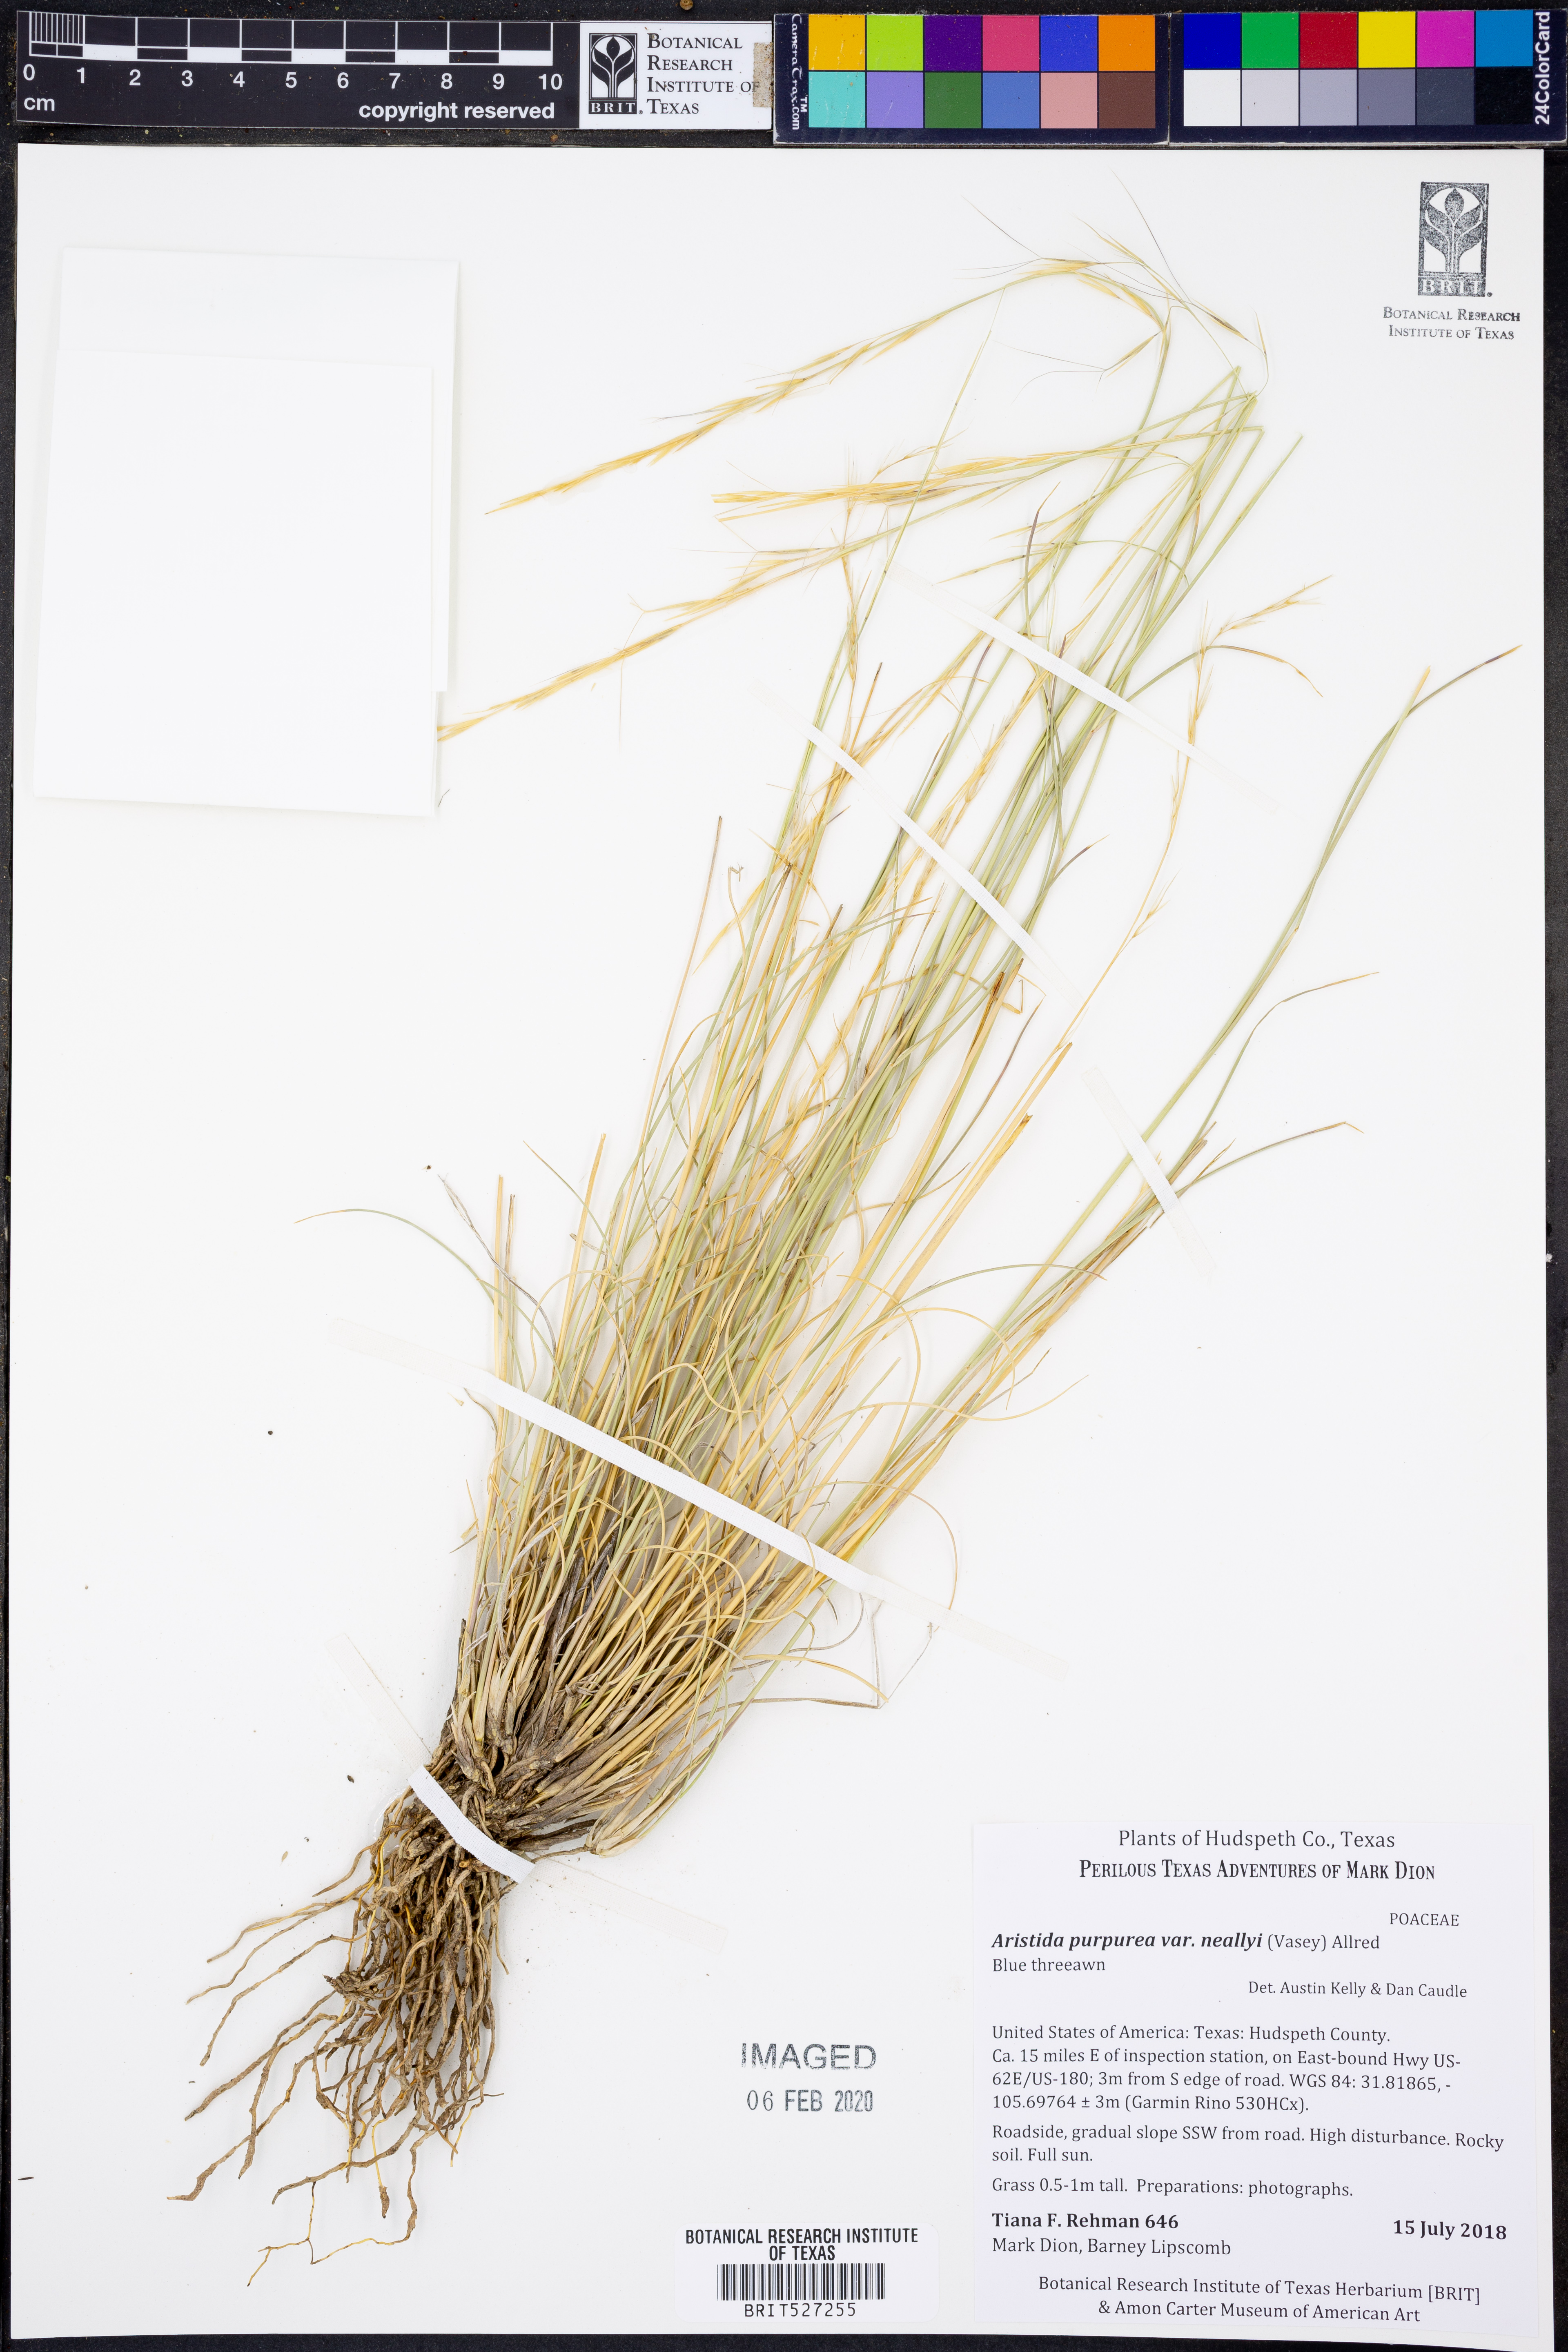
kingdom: Plantae
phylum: Tracheophyta
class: Liliopsida
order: Poales
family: Poaceae
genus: Aristida
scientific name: Aristida glauca
